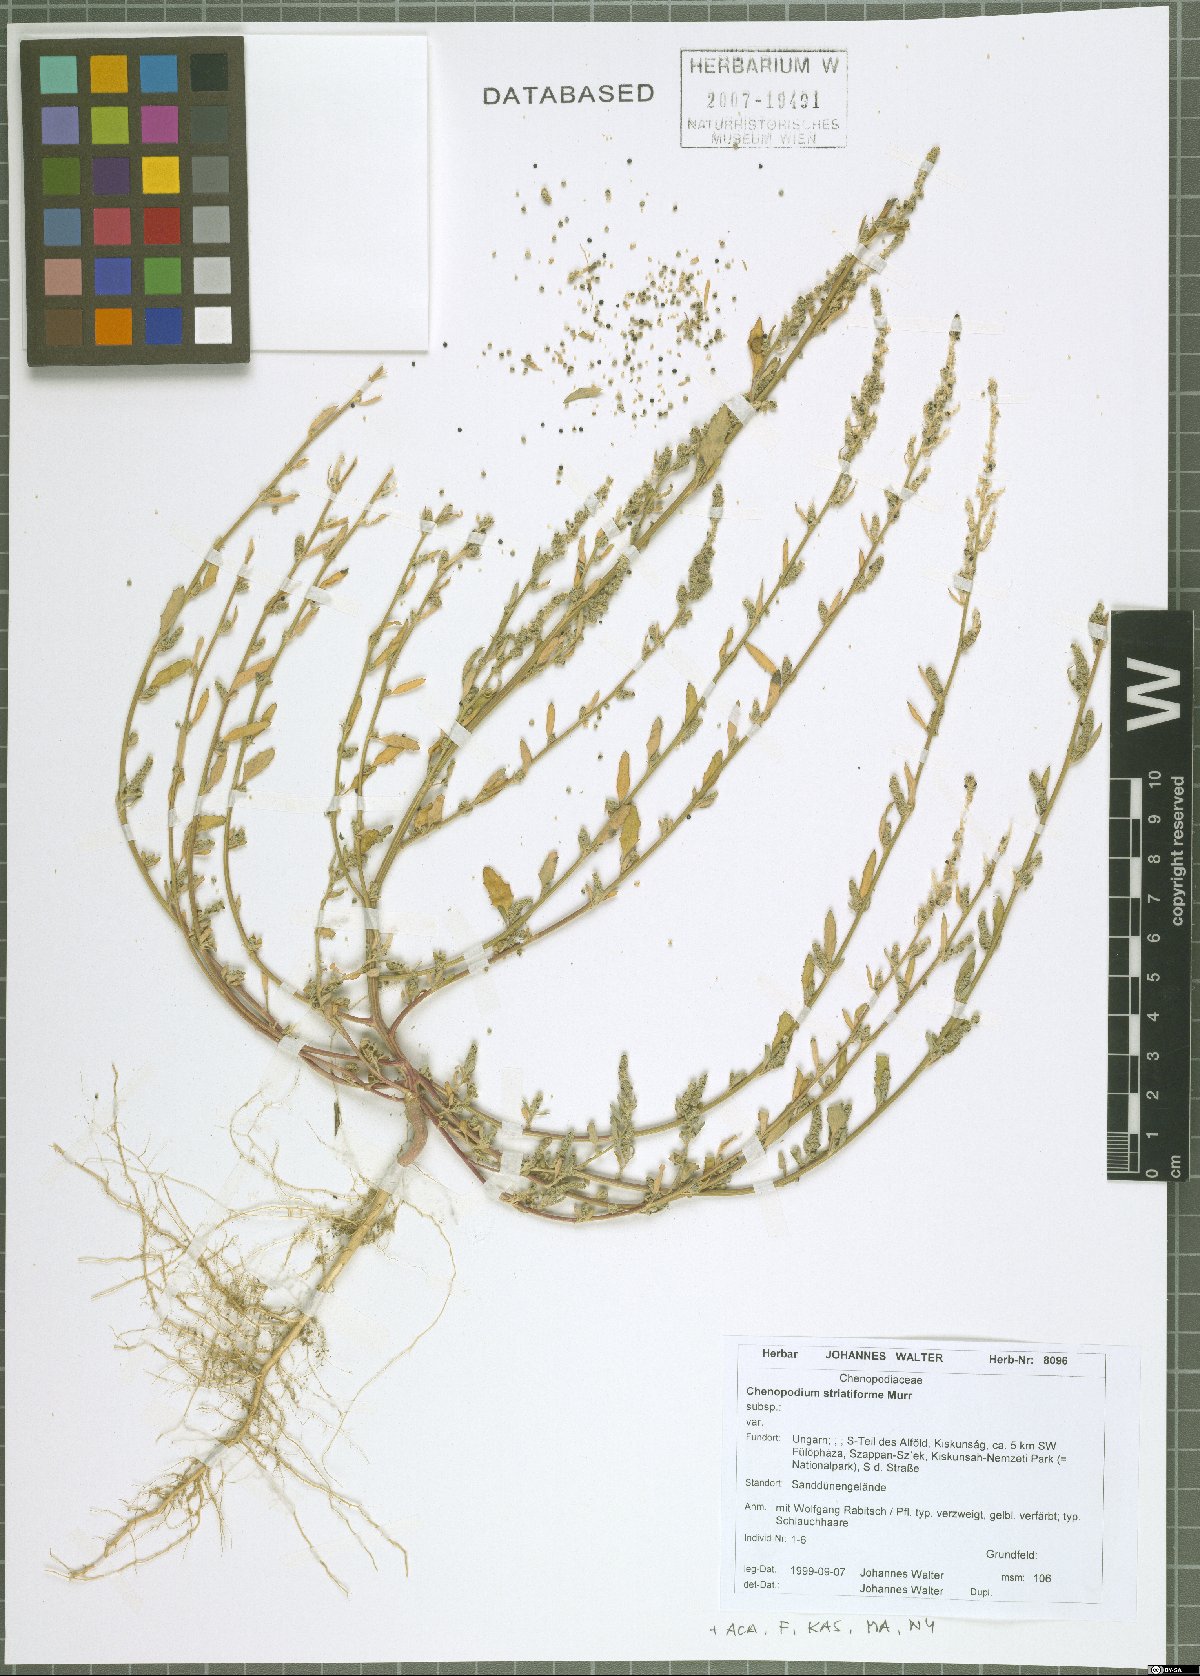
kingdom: Plantae
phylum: Tracheophyta
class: Magnoliopsida
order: Caryophyllales
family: Amaranthaceae
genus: Chenopodium
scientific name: Chenopodium striatiforme
